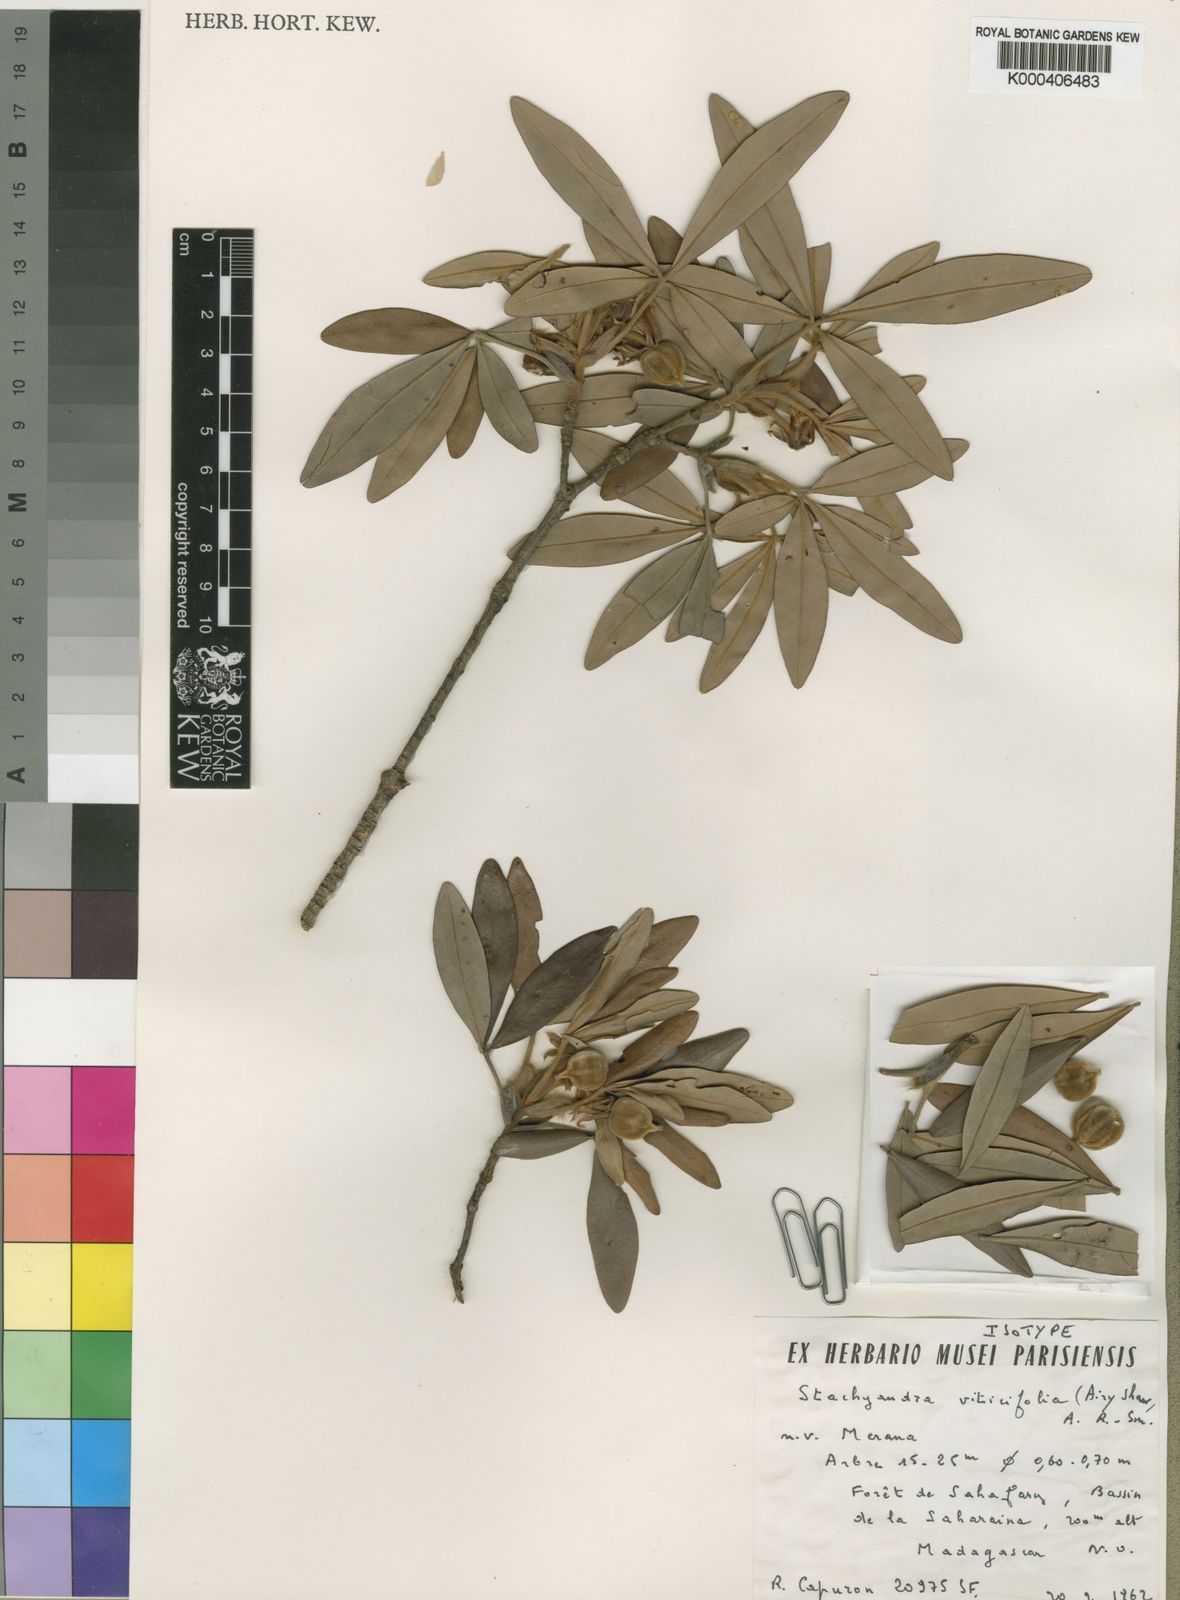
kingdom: Plantae
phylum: Tracheophyta
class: Magnoliopsida
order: Malpighiales
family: Picrodendraceae
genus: Stachyandra
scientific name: Stachyandra viticifolia
